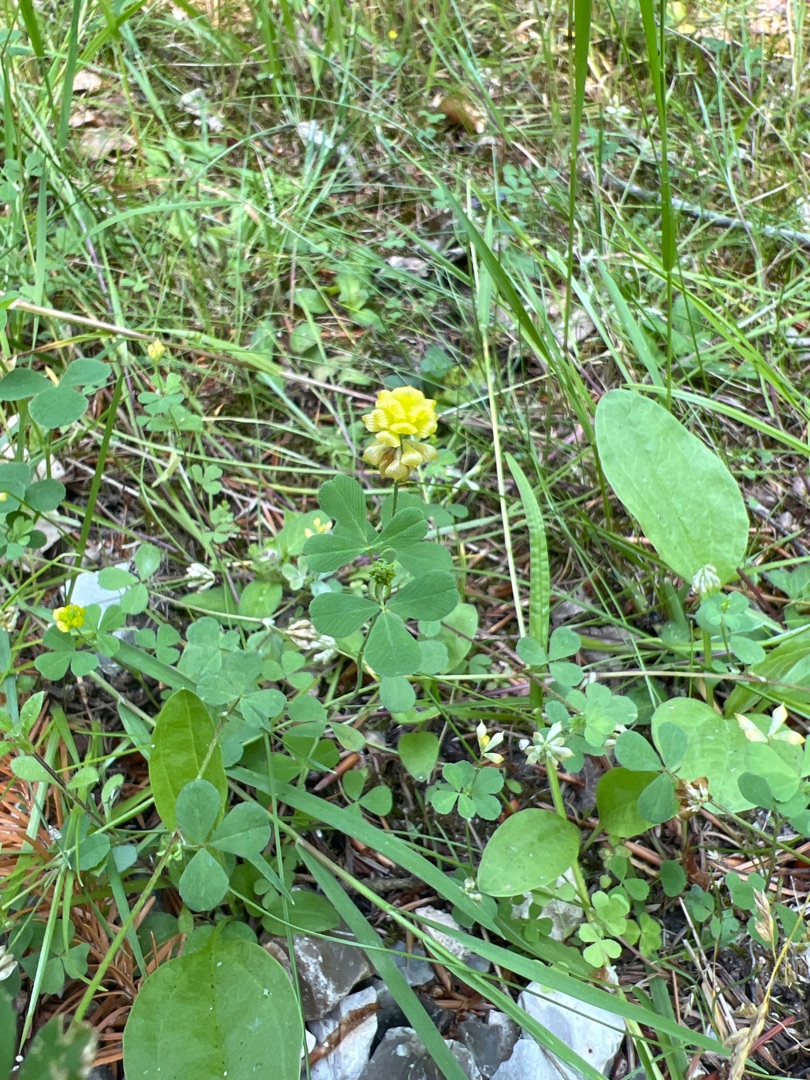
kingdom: Plantae
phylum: Tracheophyta
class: Magnoliopsida
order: Fabales
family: Fabaceae
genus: Trifolium
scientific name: Trifolium campestre
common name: Gul kløver
